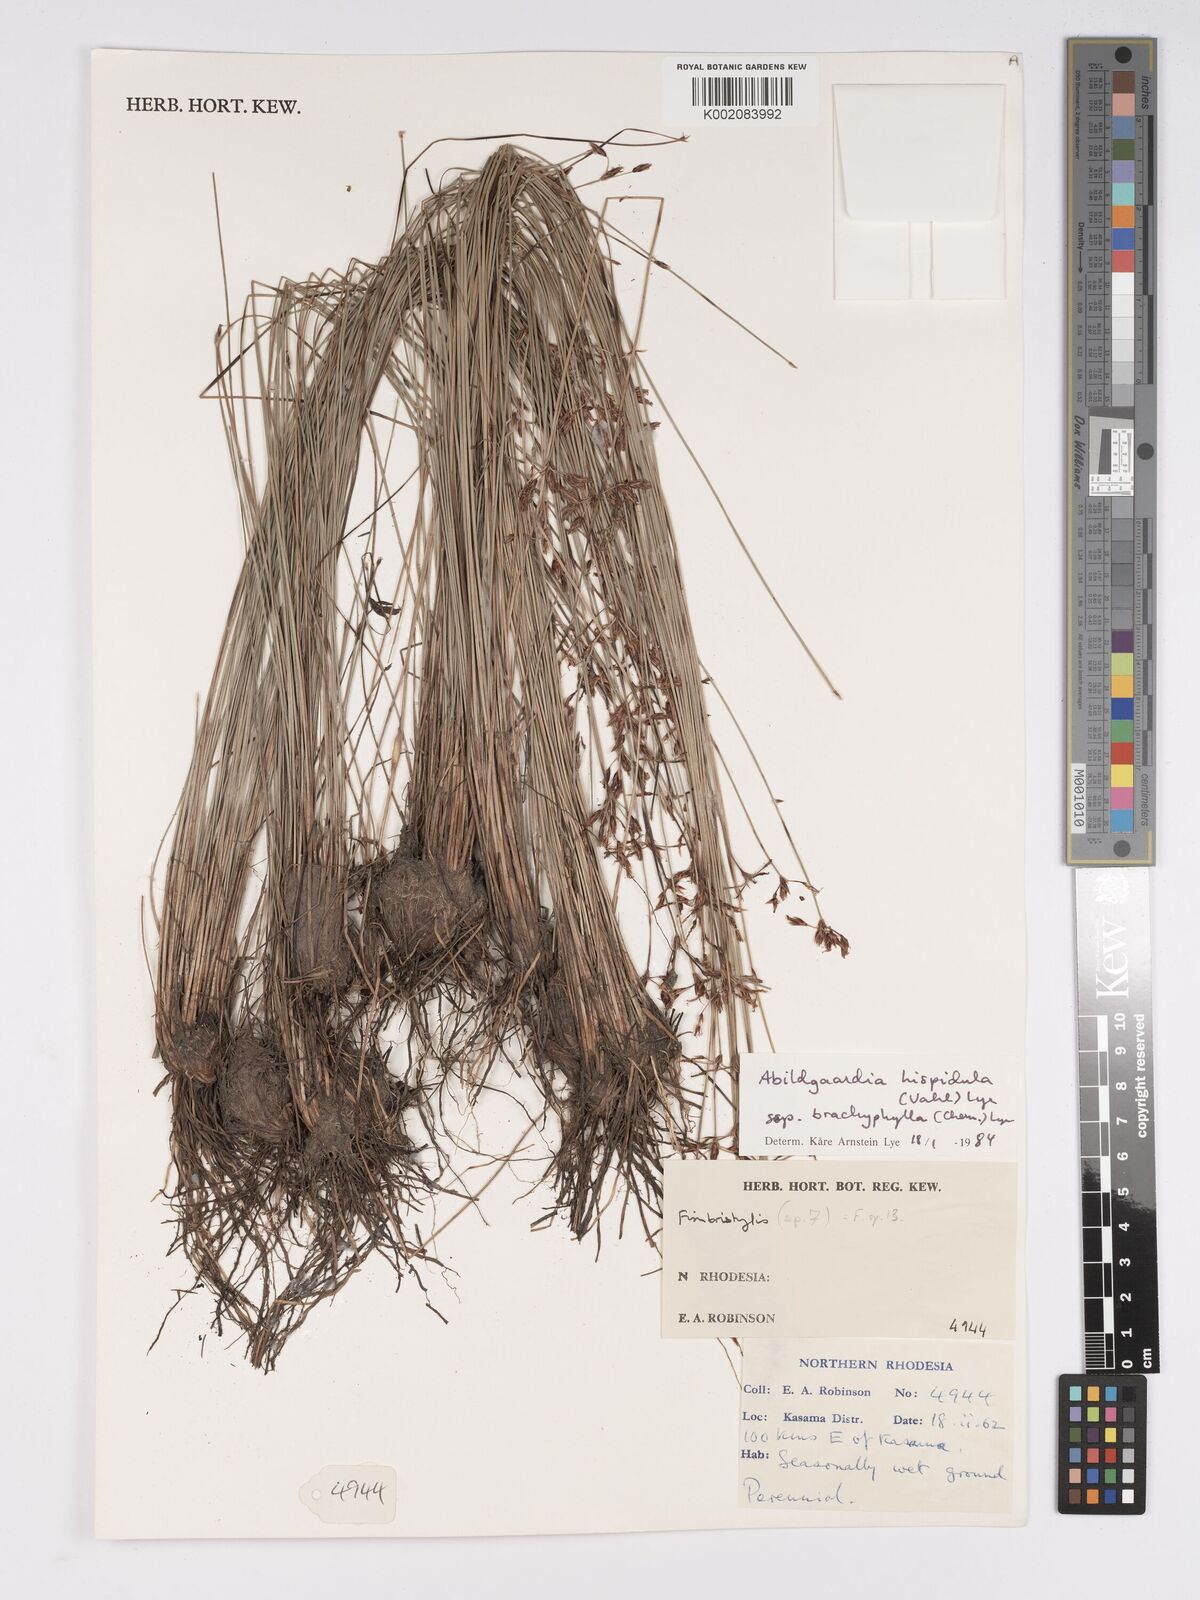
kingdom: Plantae
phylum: Tracheophyta
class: Liliopsida
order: Poales
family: Cyperaceae
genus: Bulbostylis
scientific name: Bulbostylis hispidula
